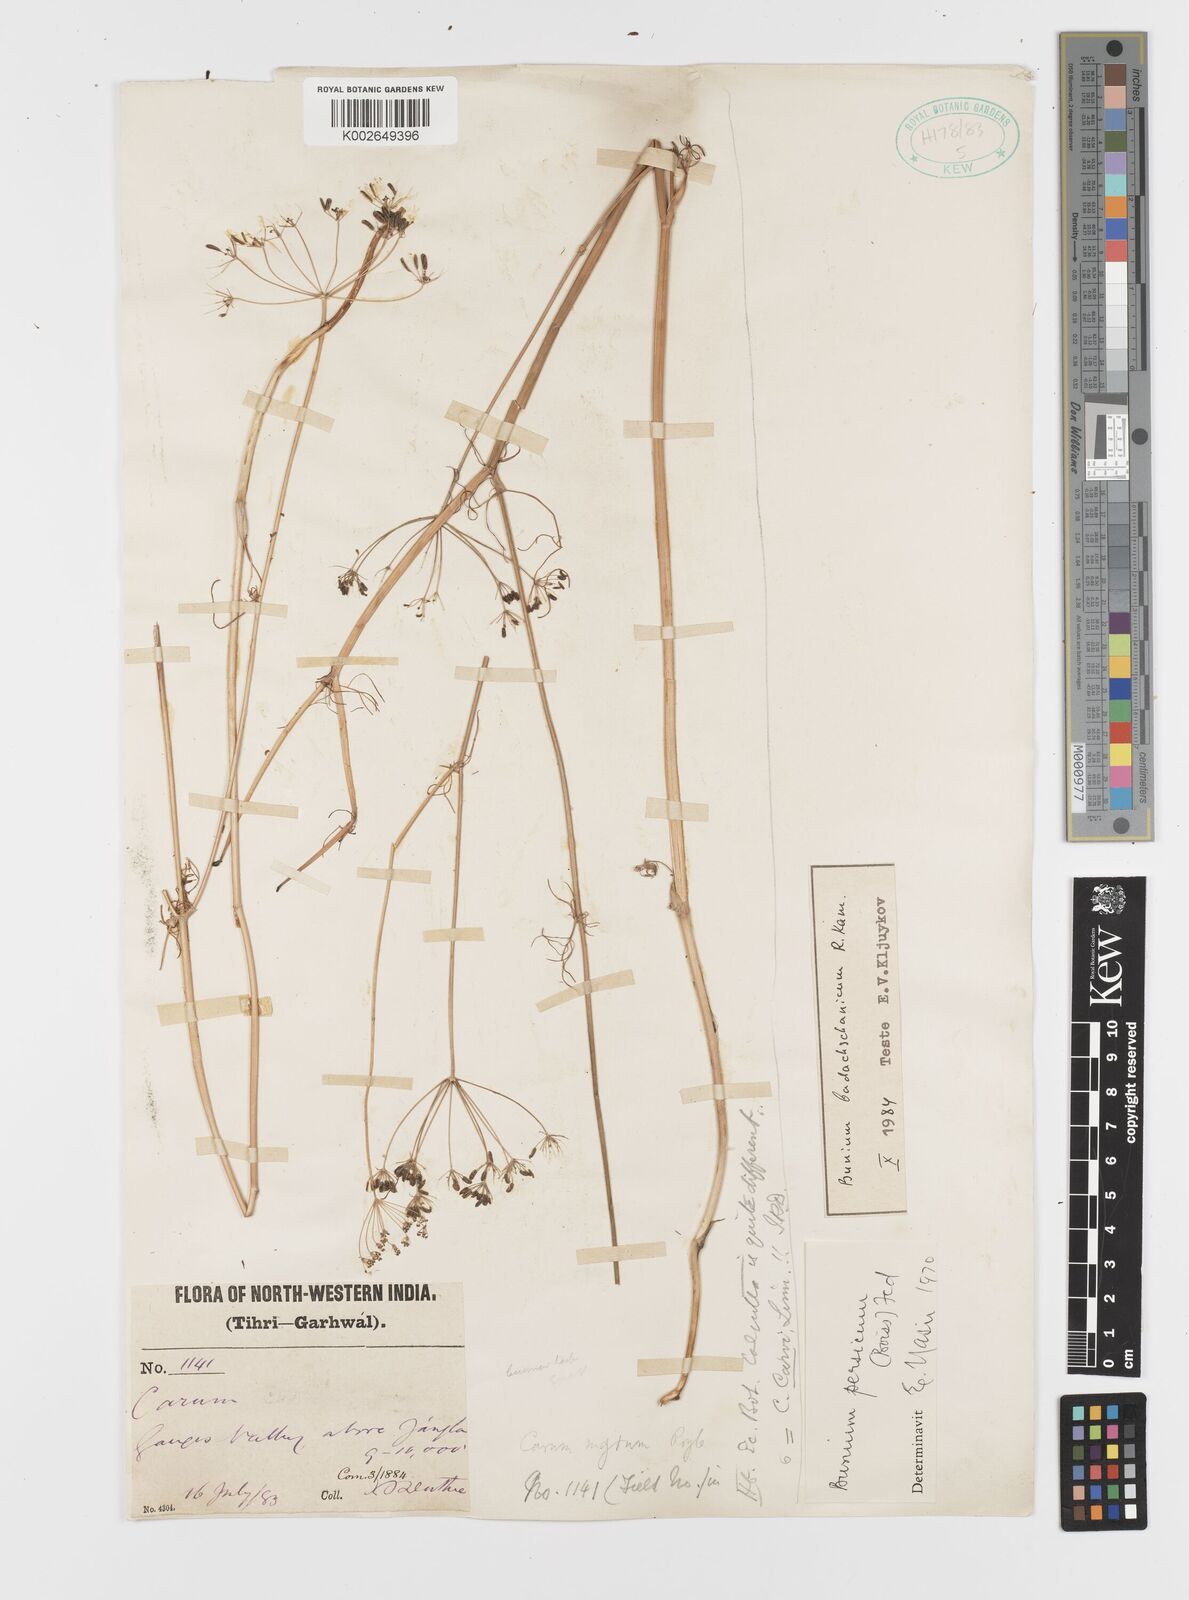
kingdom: Plantae
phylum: Tracheophyta
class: Magnoliopsida
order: Apiales
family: Apiaceae
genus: Elwendia
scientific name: Elwendia badachschanica
